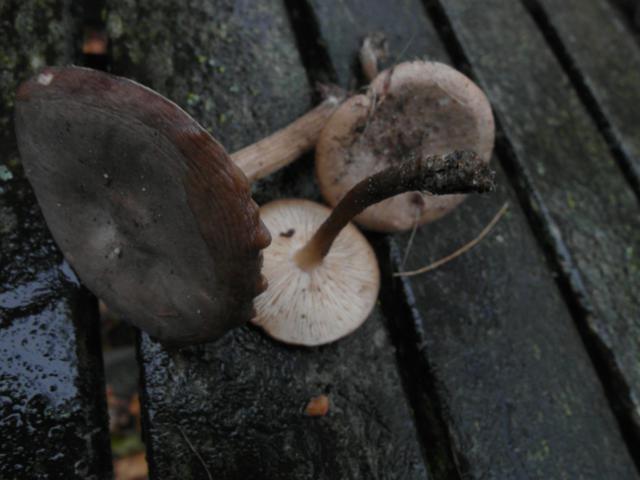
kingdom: Fungi
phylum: Basidiomycota
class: Agaricomycetes
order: Agaricales
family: Tricholomataceae
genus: Melanoleuca
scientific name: Melanoleuca polioleuca
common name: hvidbladet munkehat
